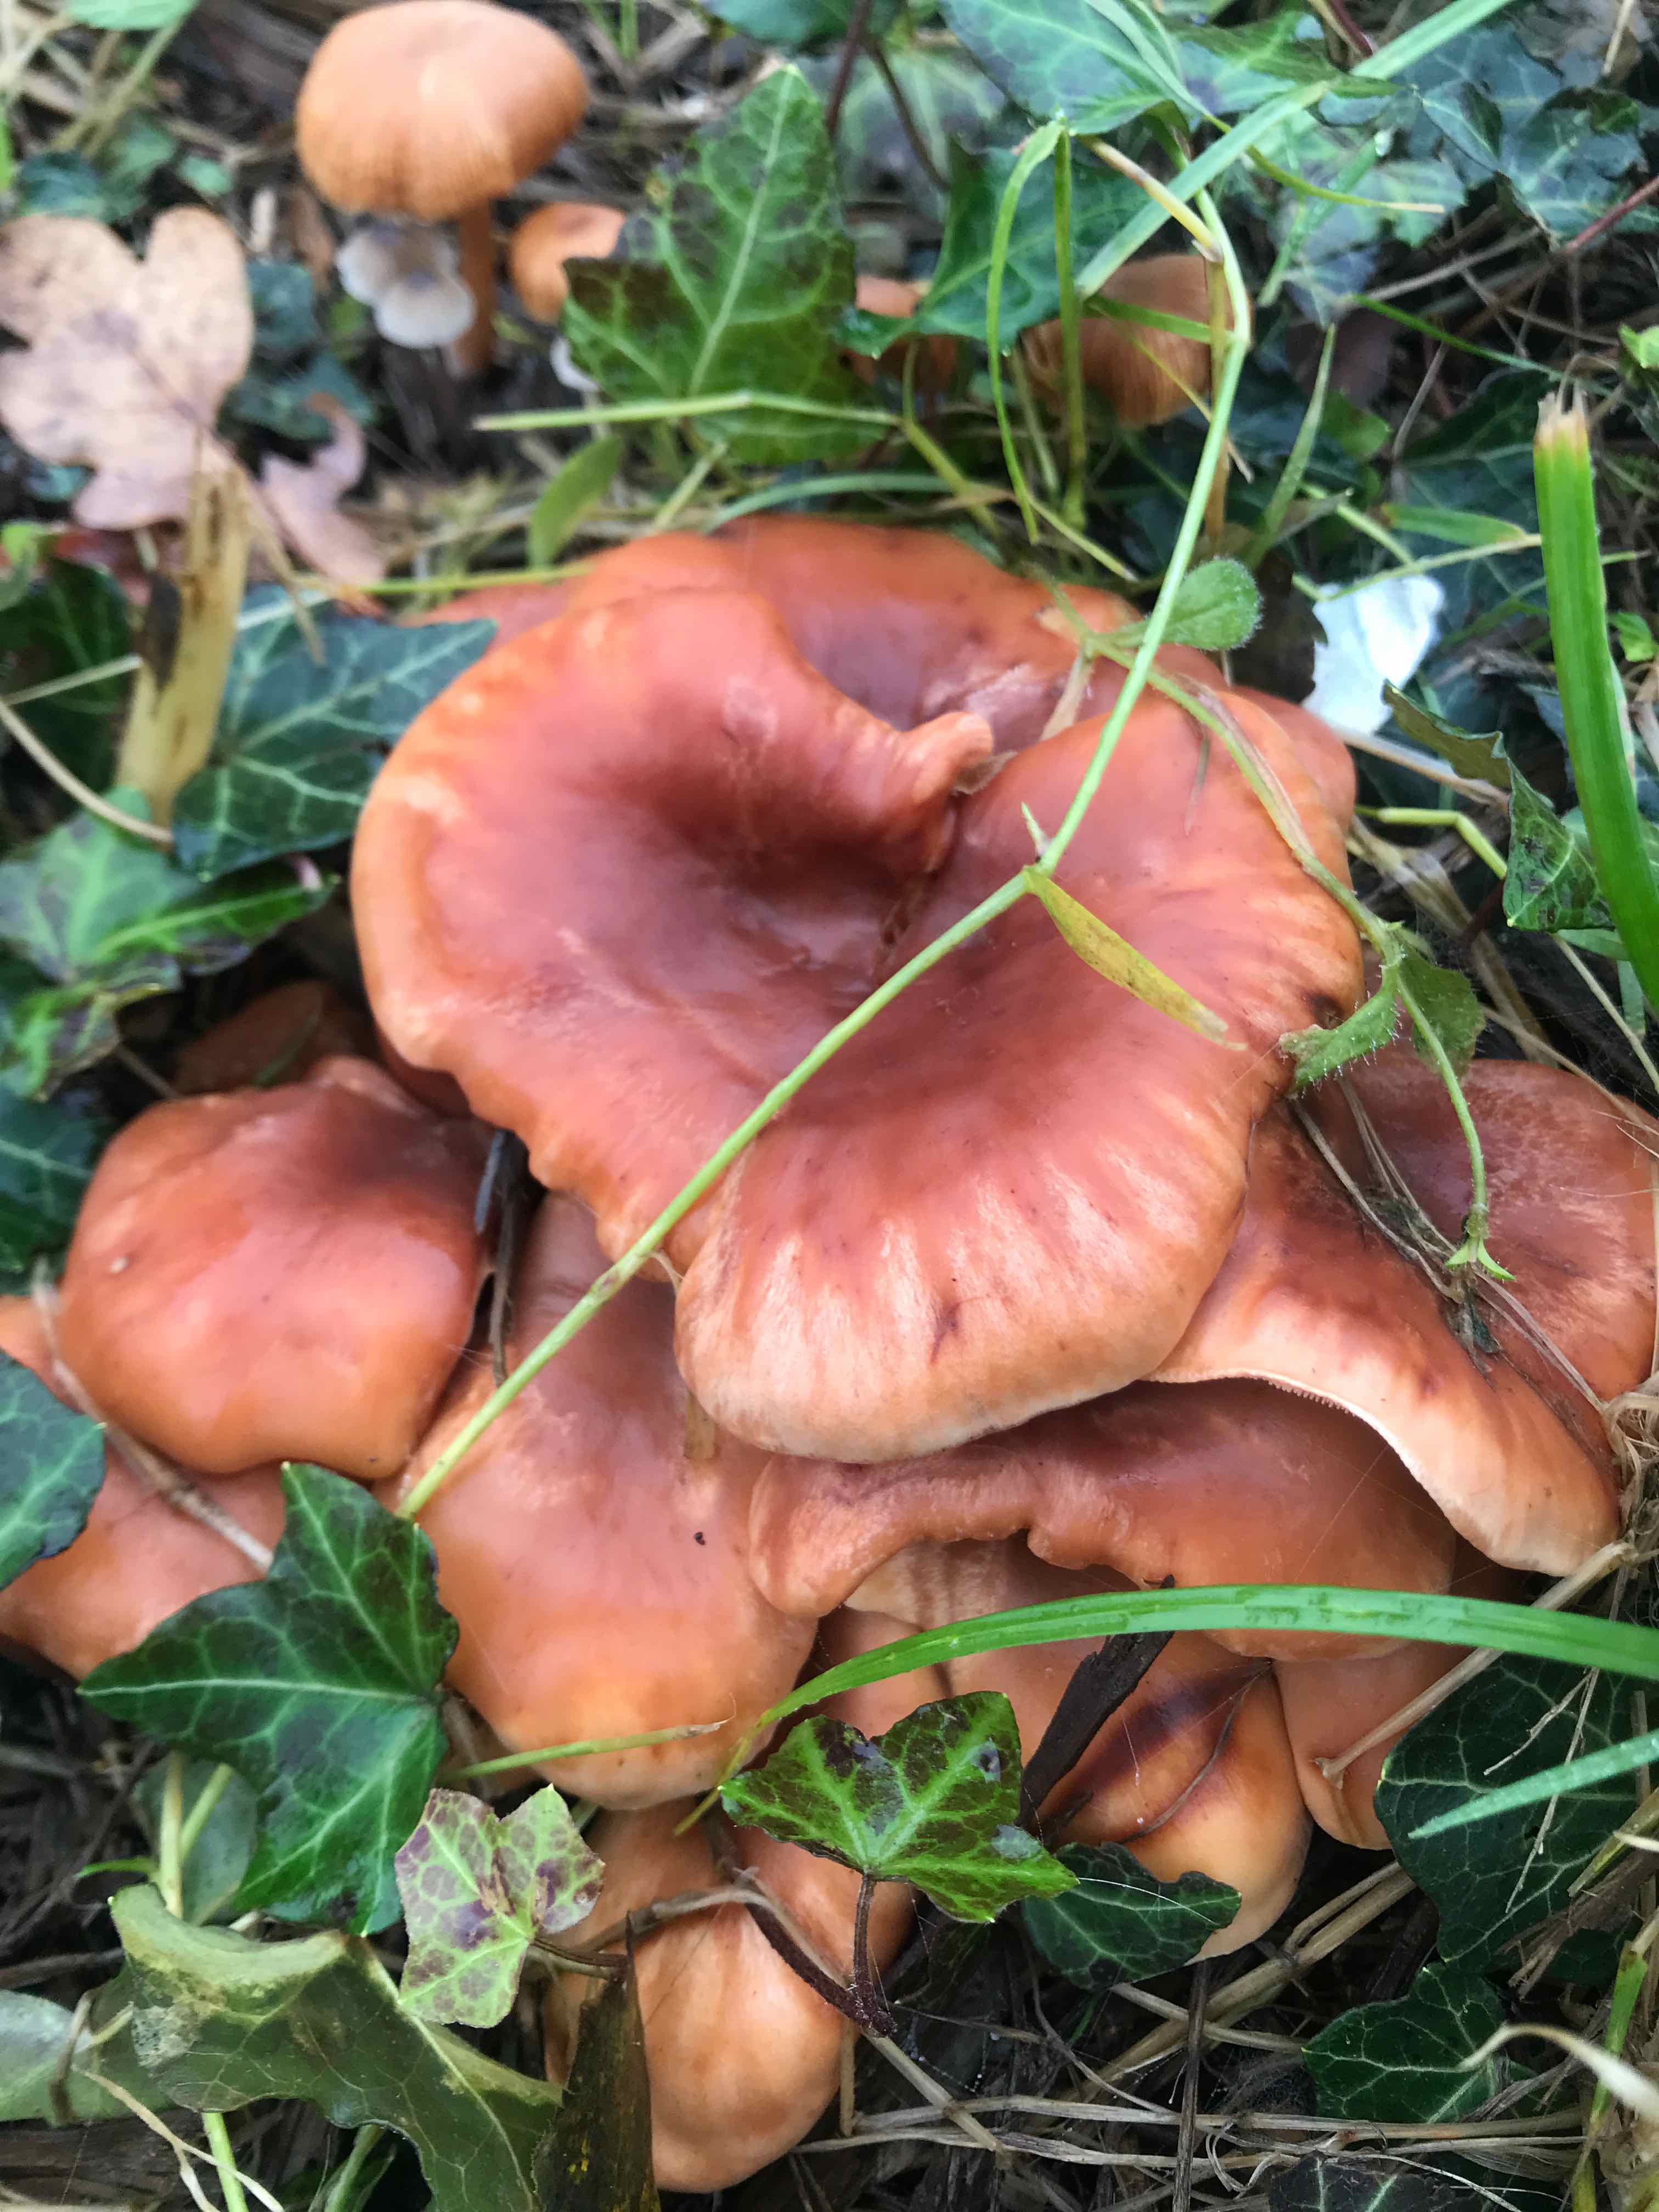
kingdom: Fungi
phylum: Basidiomycota
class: Agaricomycetes
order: Agaricales
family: Tricholomataceae
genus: Paralepista
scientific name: Paralepista flaccida
